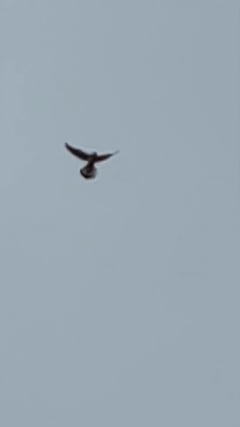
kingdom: Animalia
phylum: Chordata
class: Aves
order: Falconiformes
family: Falconidae
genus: Falco
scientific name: Falco tinnunculus
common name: Common kestrel
